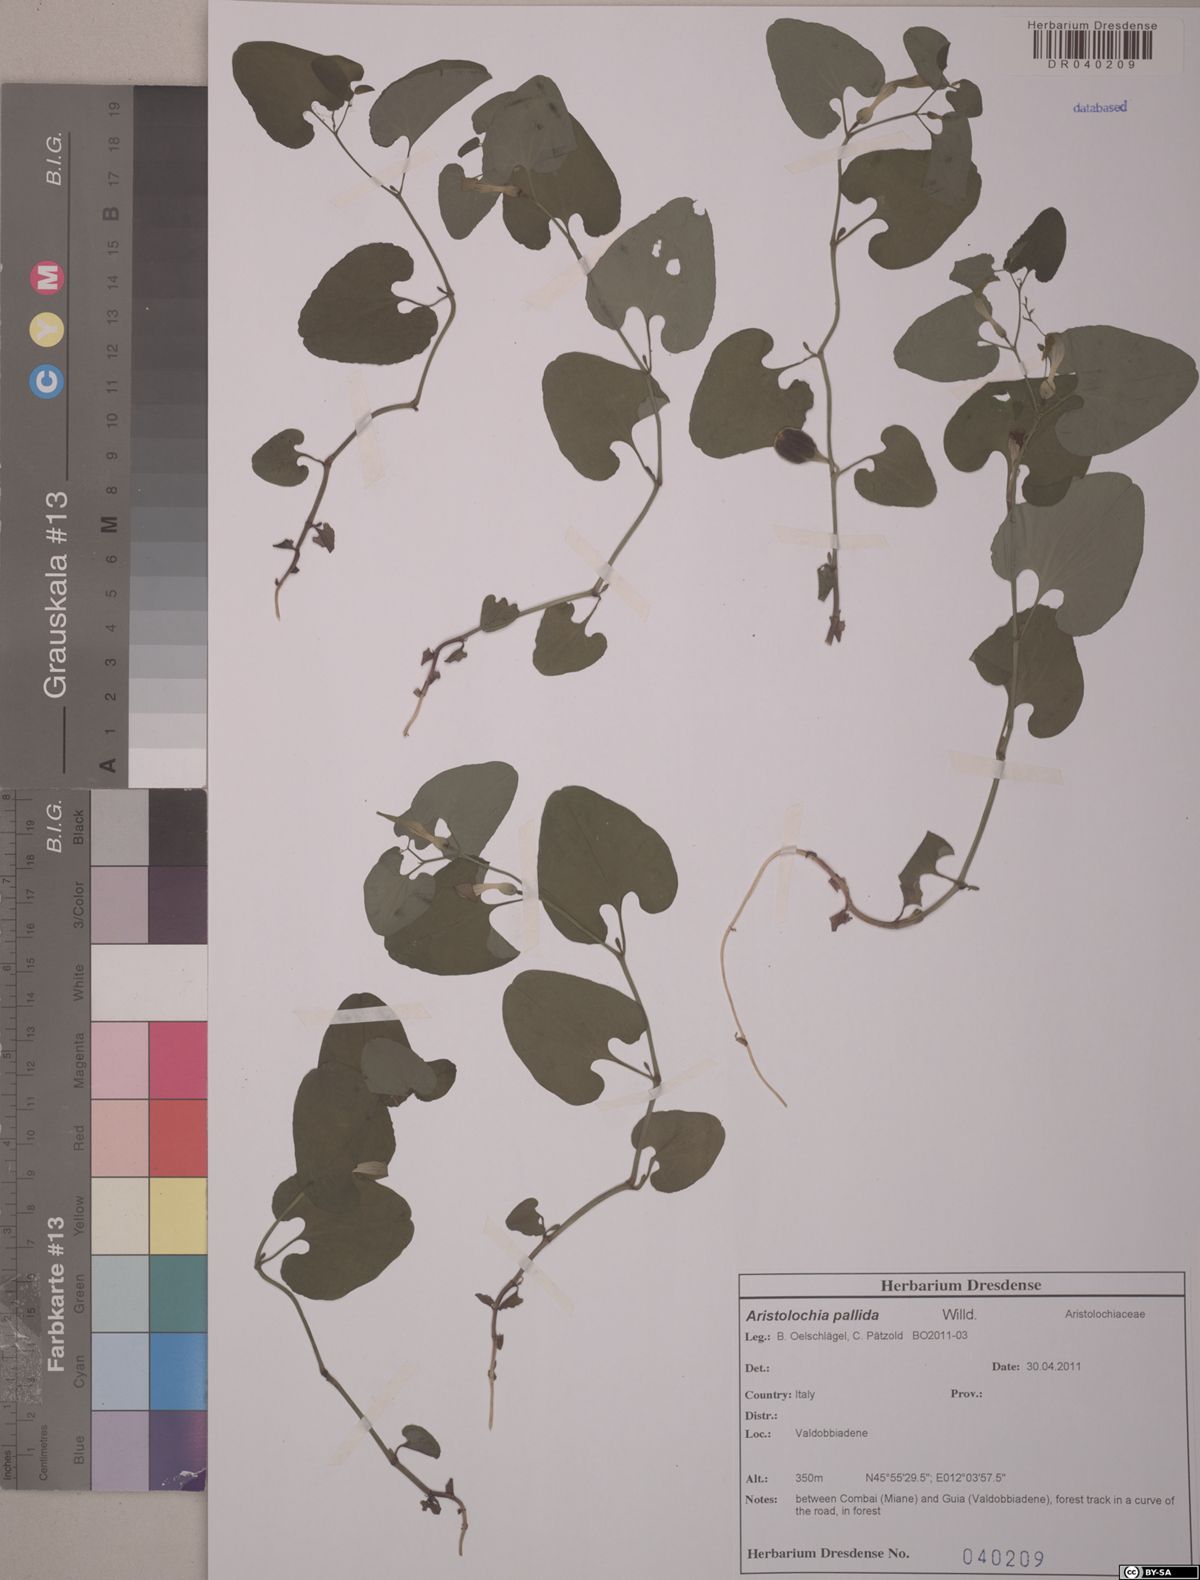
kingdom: Plantae
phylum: Tracheophyta
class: Magnoliopsida
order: Piperales
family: Aristolochiaceae
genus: Aristolochia
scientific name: Aristolochia pallida
